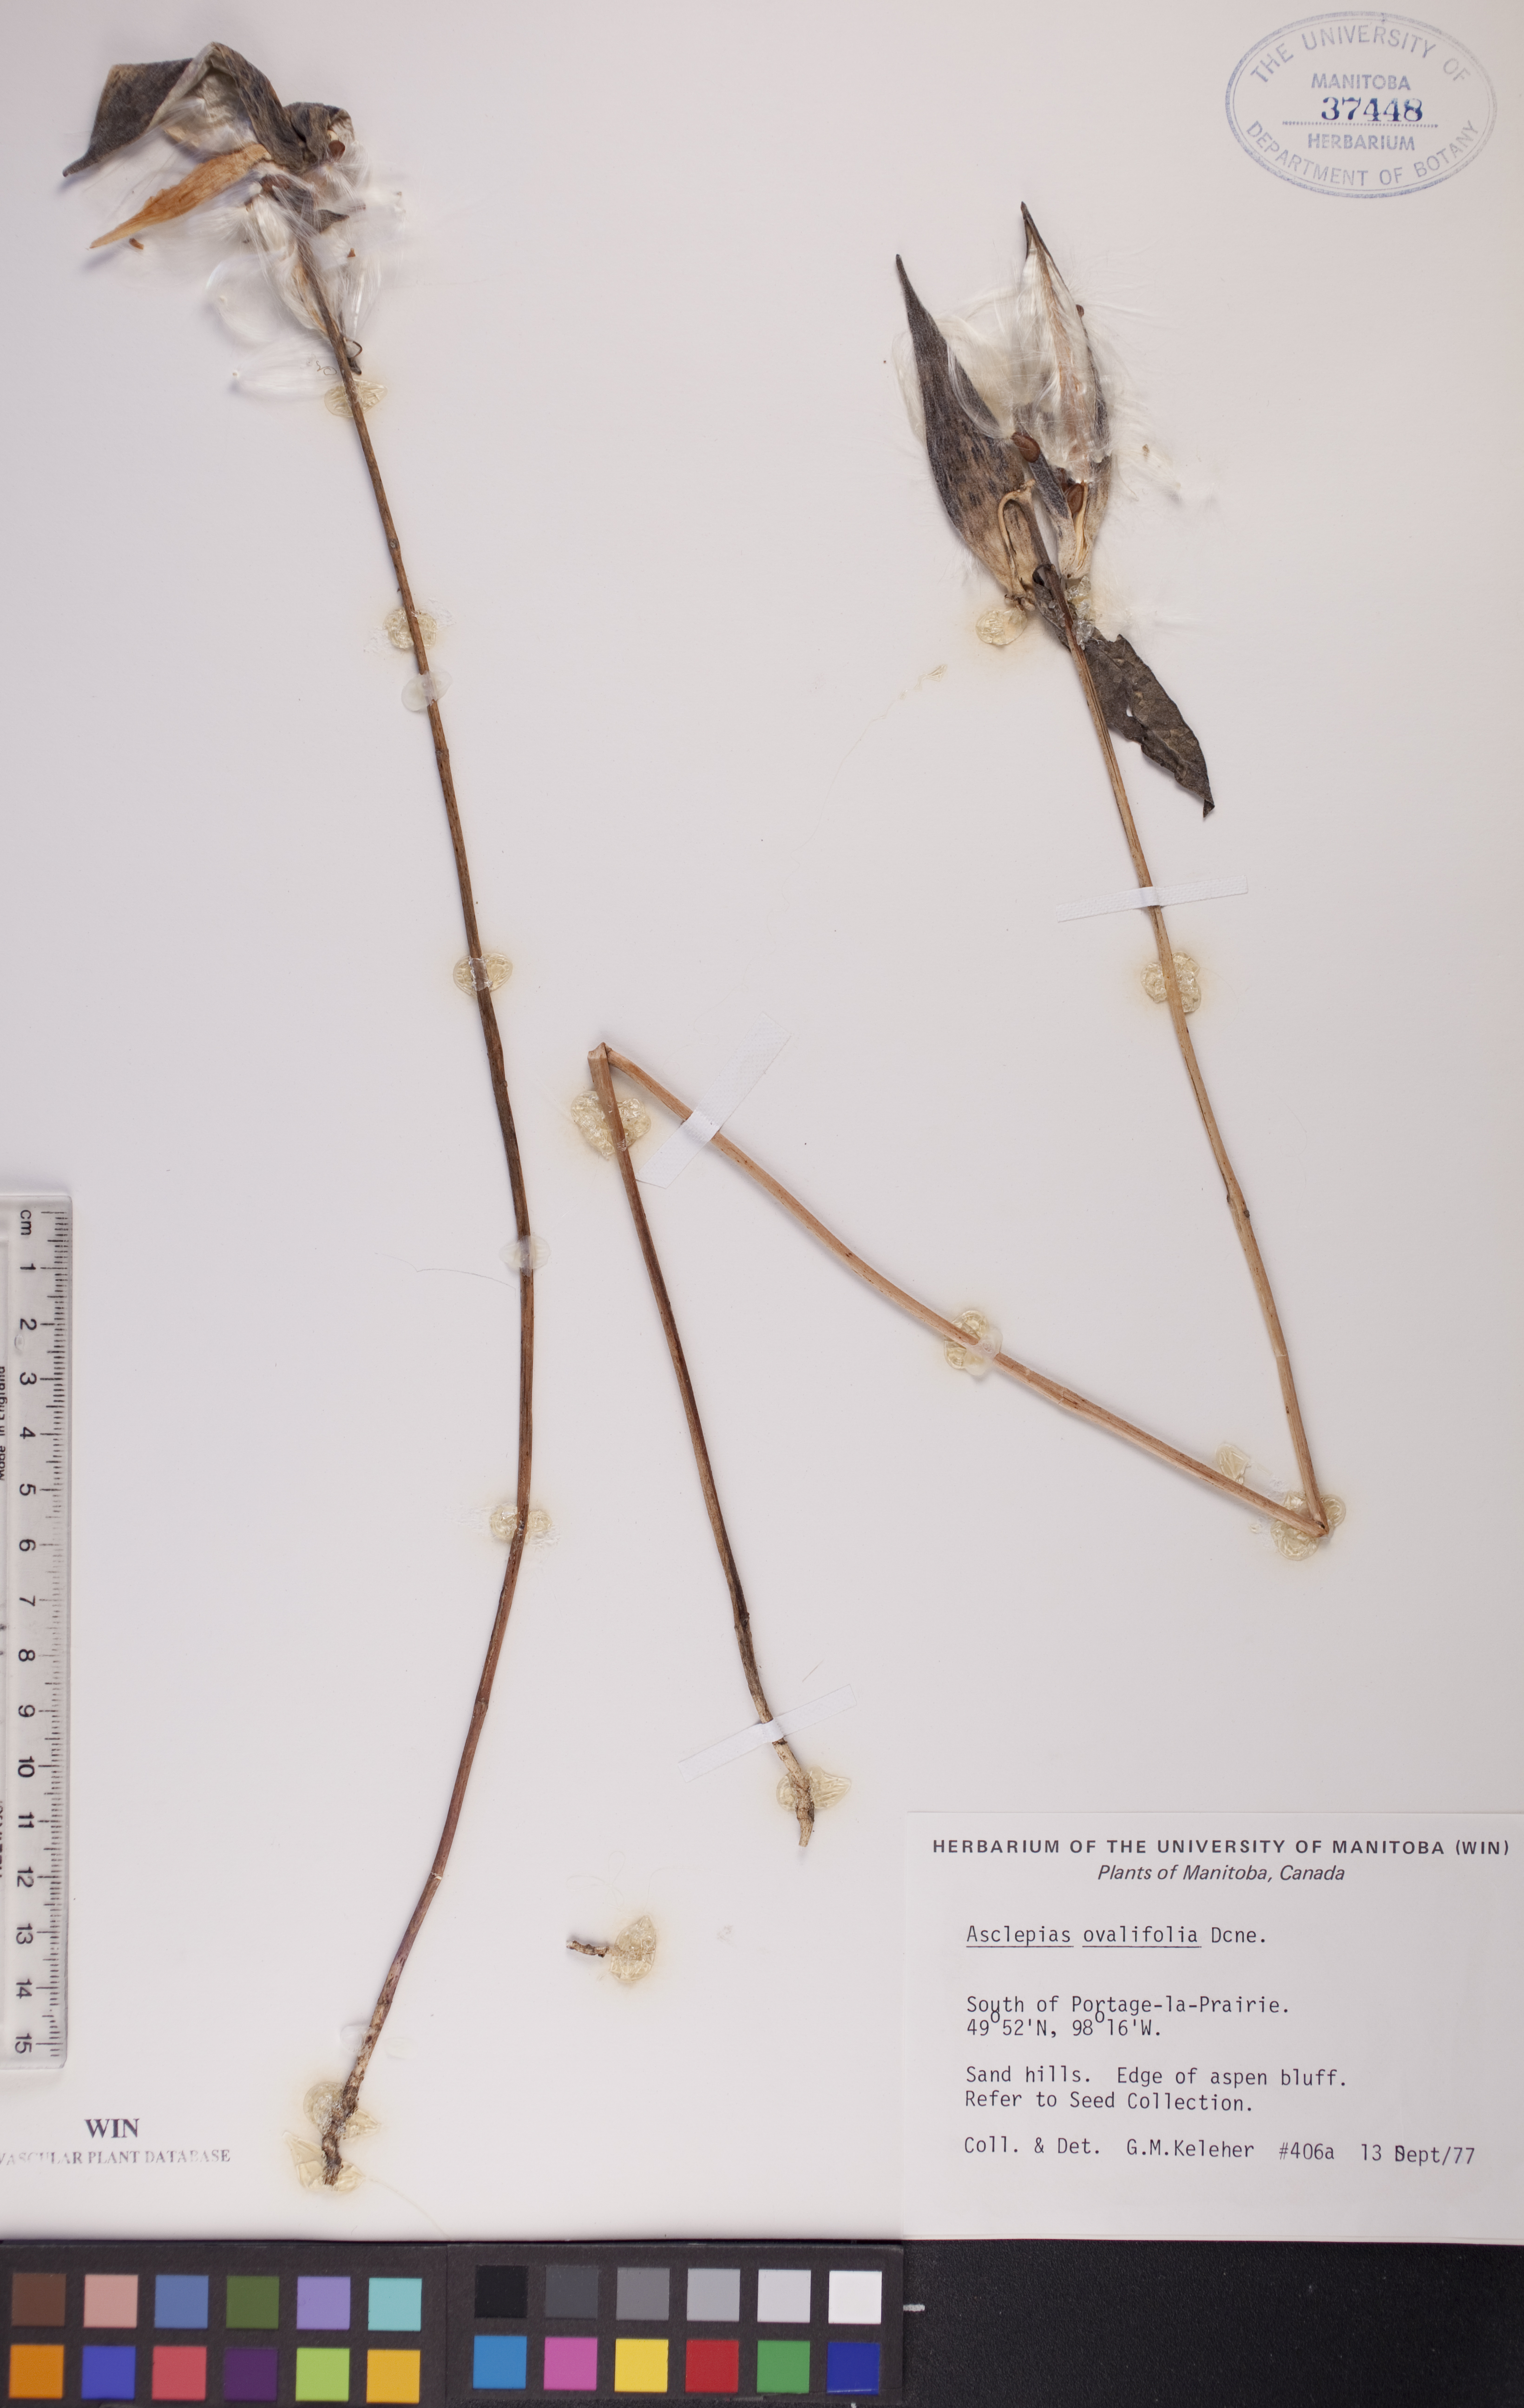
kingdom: Plantae
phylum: Tracheophyta
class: Magnoliopsida
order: Gentianales
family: Apocynaceae
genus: Asclepias
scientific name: Asclepias ovalifolia
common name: Dwarf milkweed
